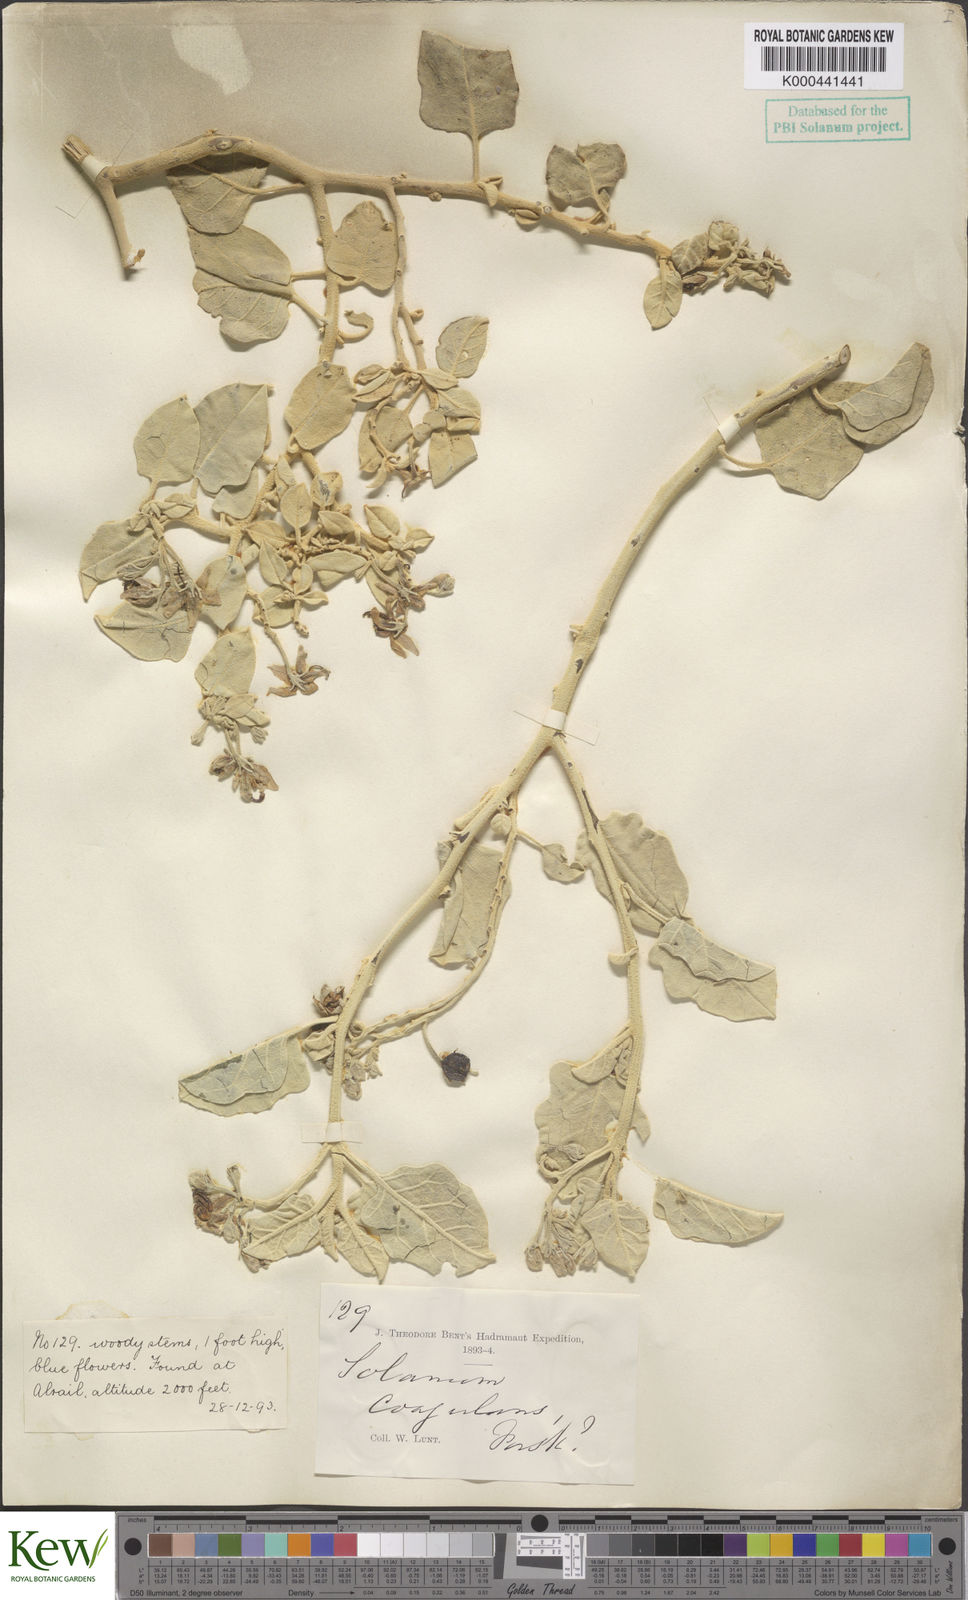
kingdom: Plantae
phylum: Tracheophyta
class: Magnoliopsida
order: Solanales
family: Solanaceae
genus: Solanum
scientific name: Solanum pubescens
